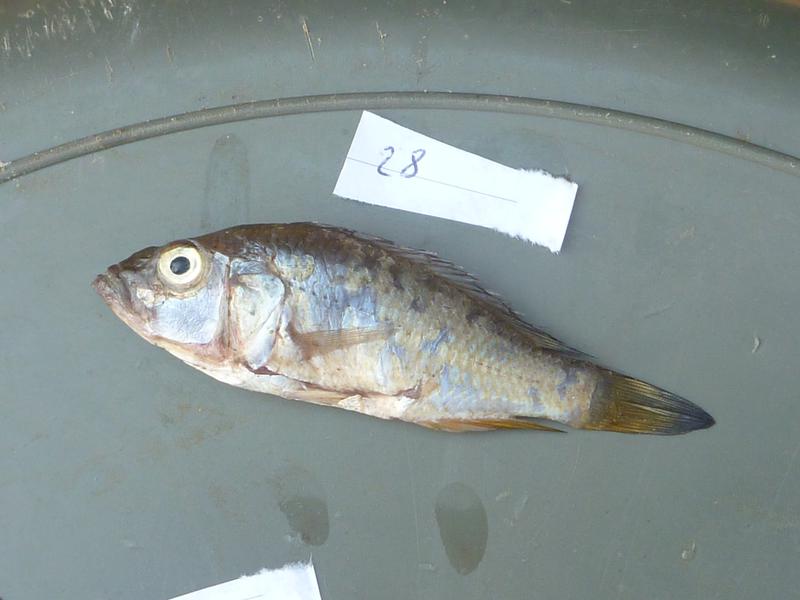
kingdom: Animalia
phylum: Chordata
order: Perciformes
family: Cichlidae
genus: Oreochromis
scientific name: Oreochromis korogwe
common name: Korogwe tilapia
